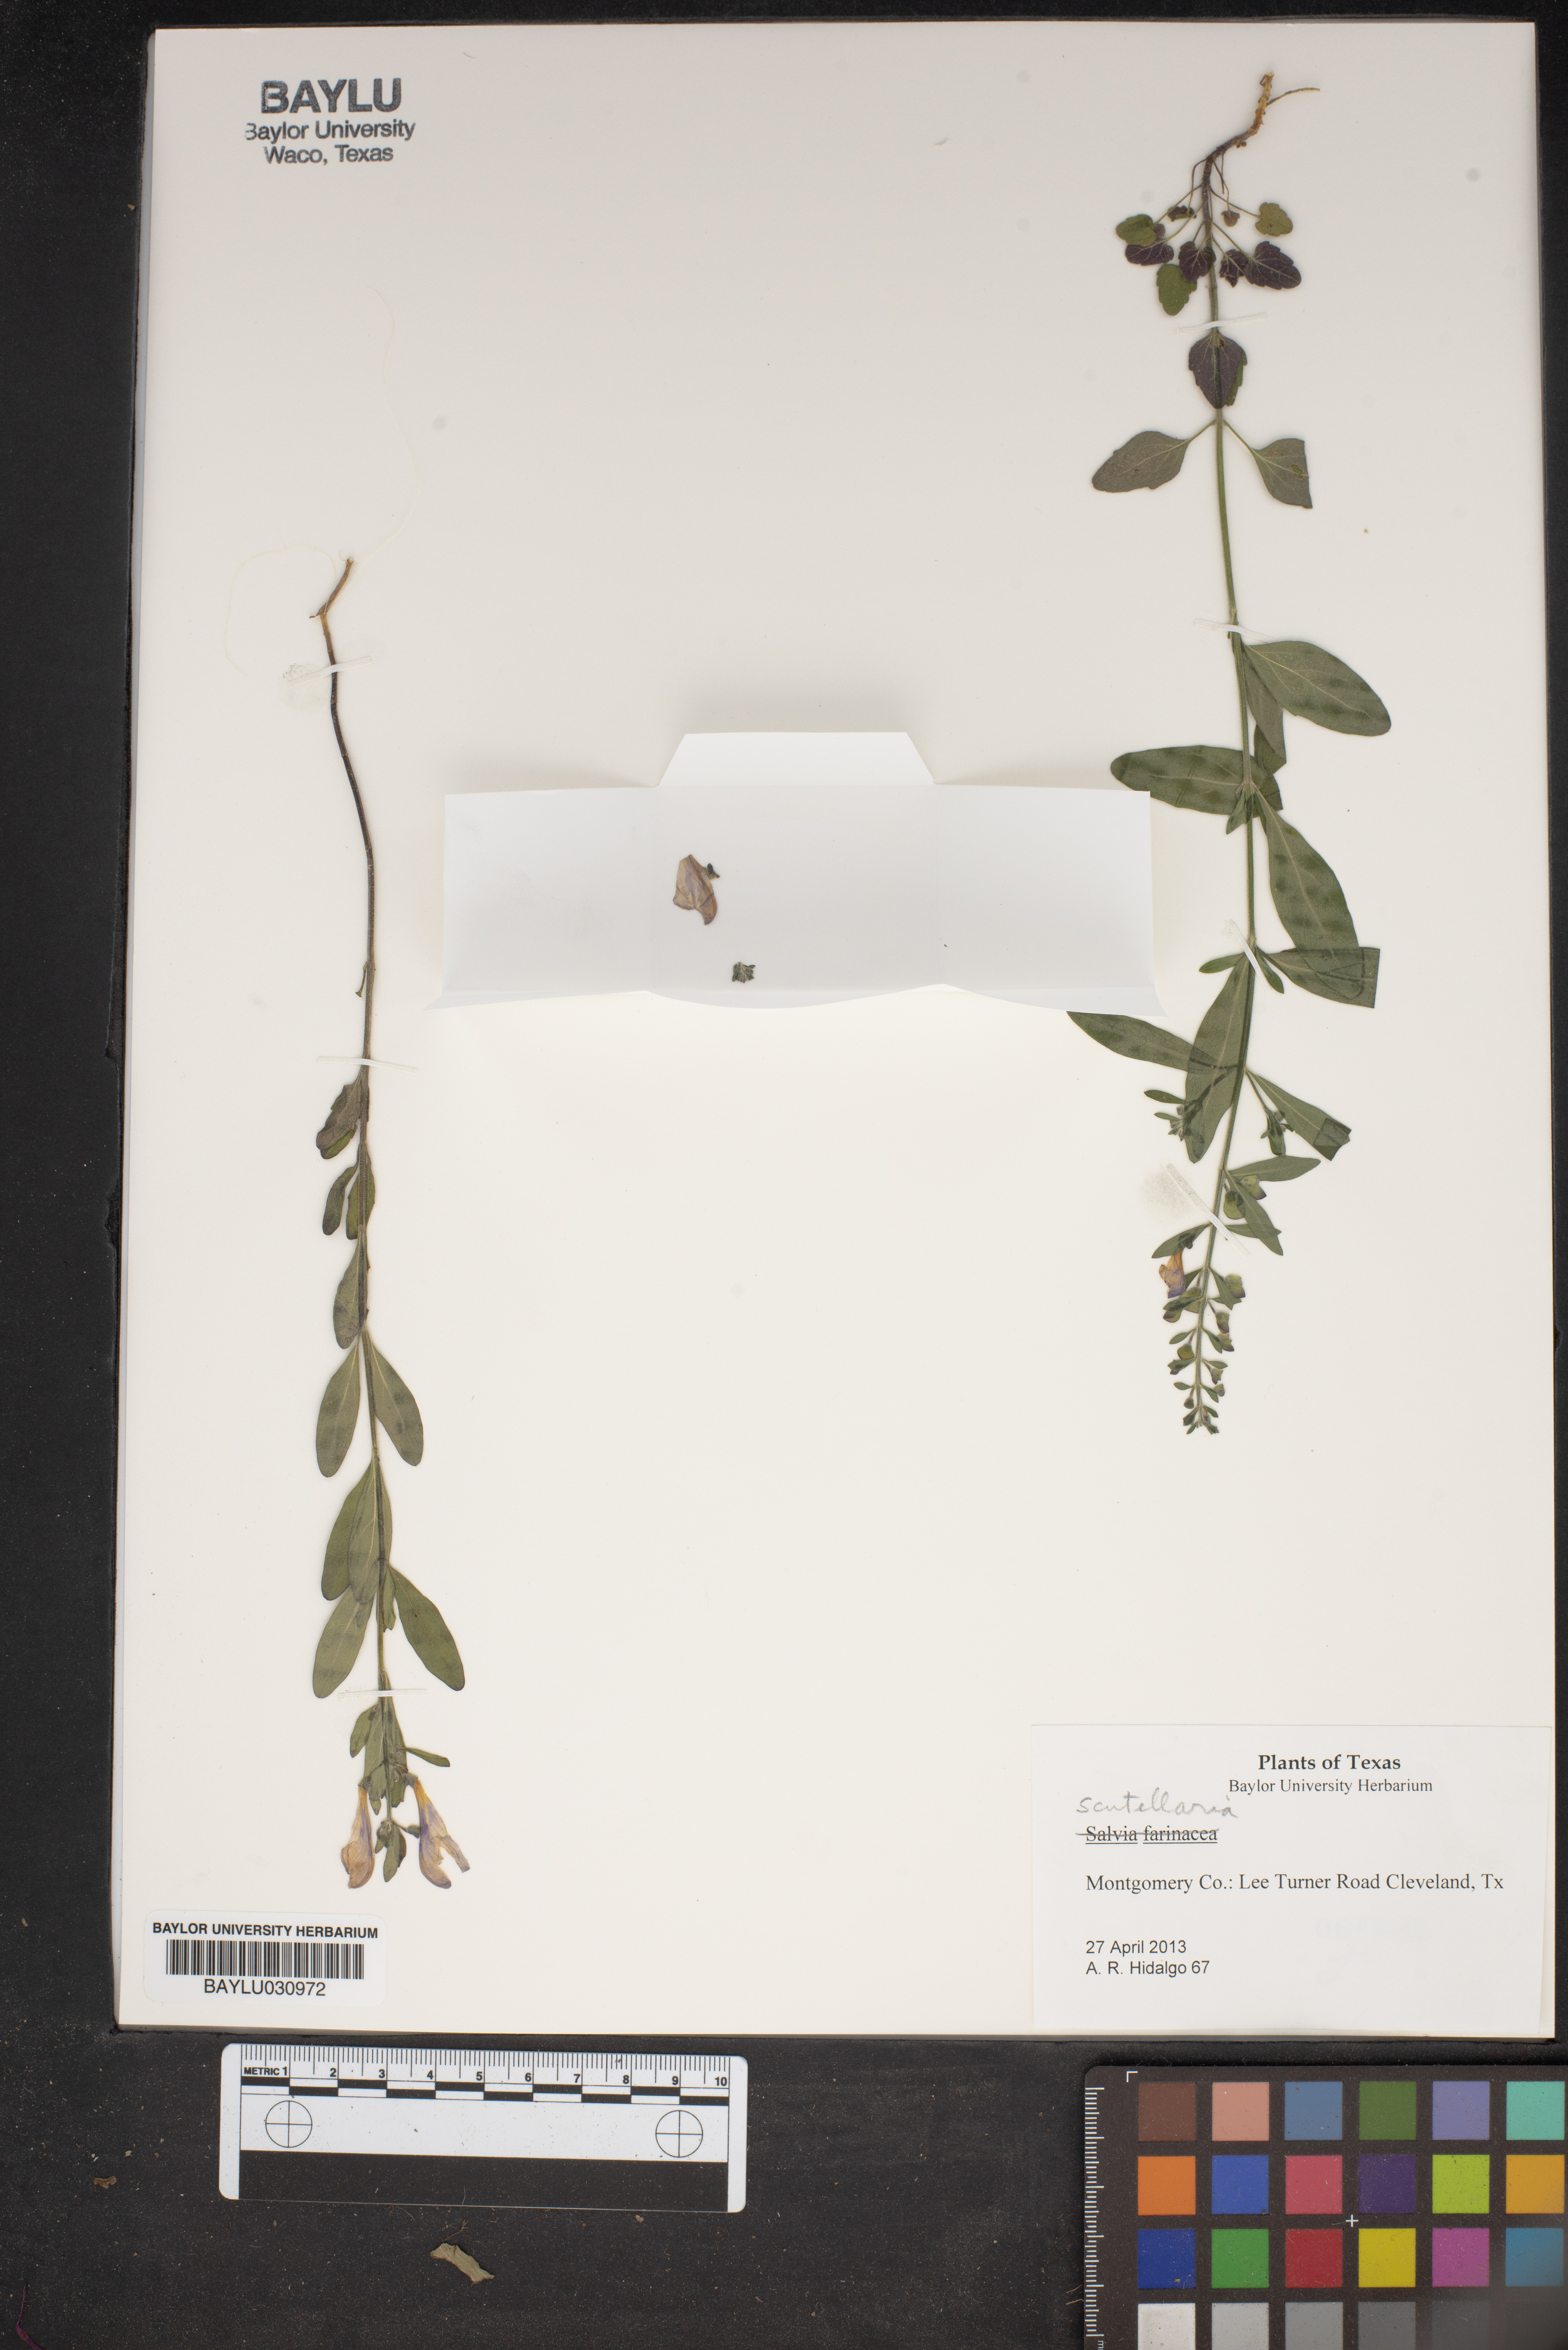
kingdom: Plantae
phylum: Tracheophyta
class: Magnoliopsida
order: Lamiales
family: Lamiaceae
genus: Scutellaria
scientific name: Scutellaria
